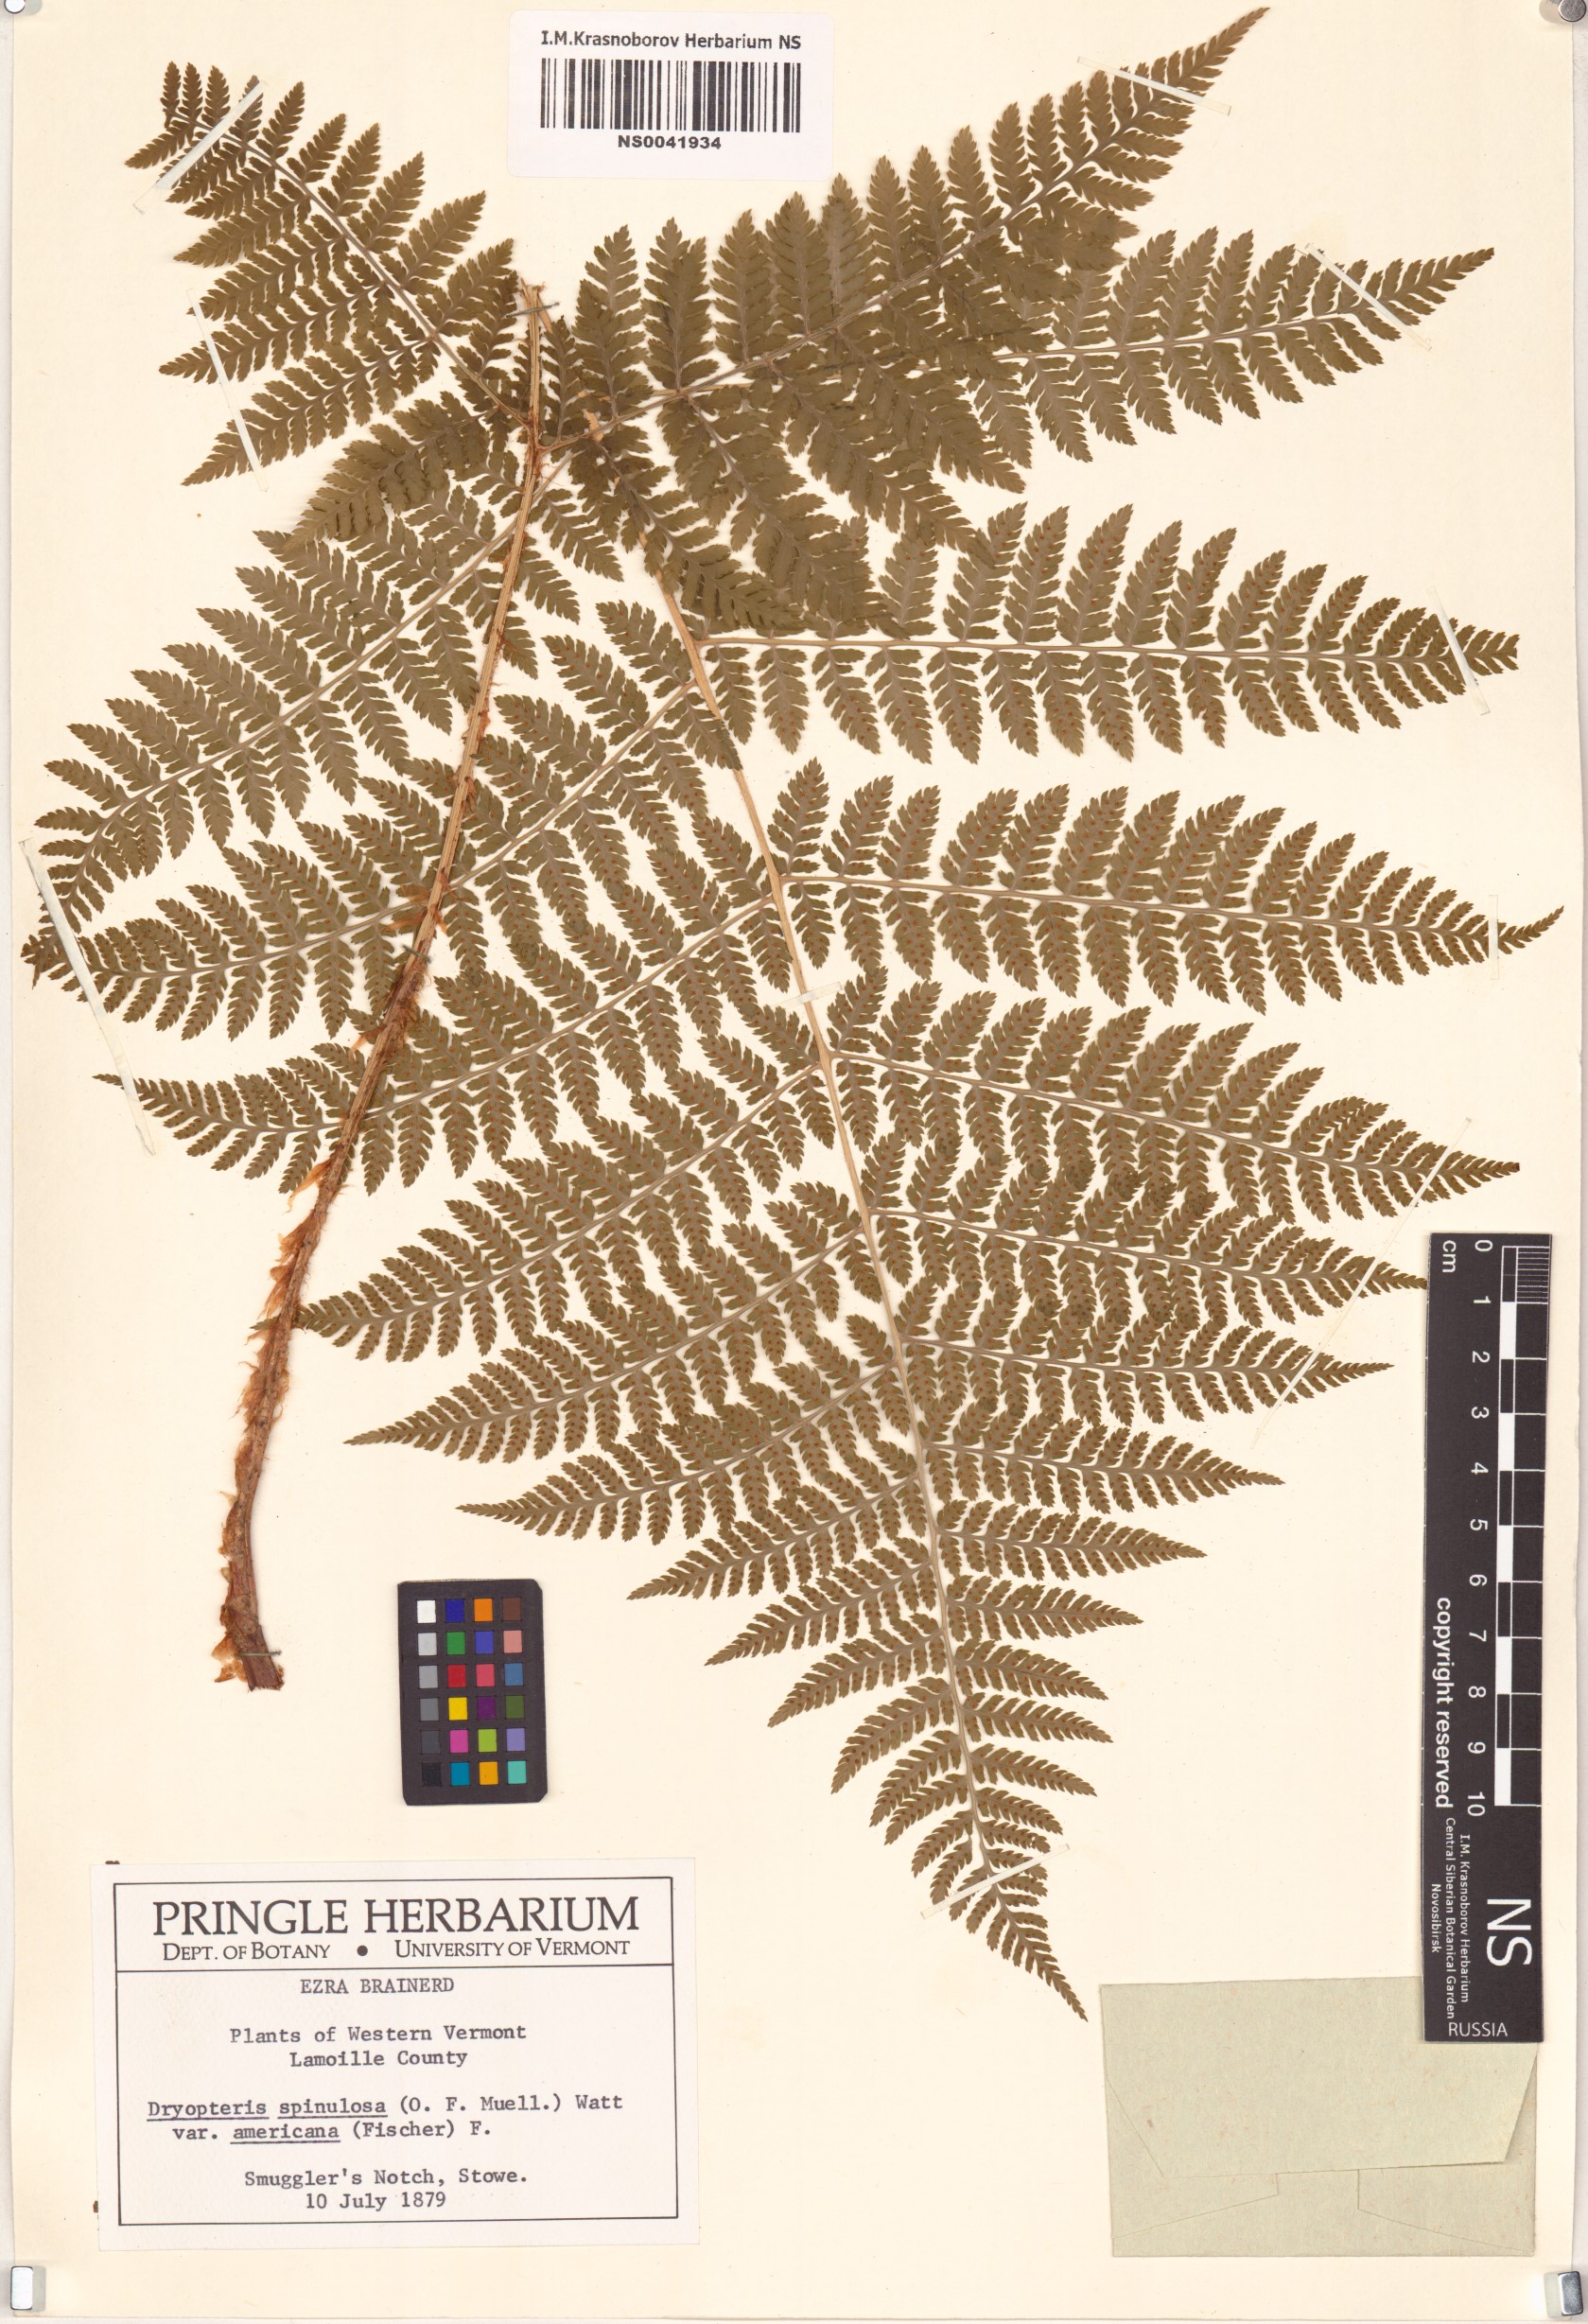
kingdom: Plantae
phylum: Tracheophyta
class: Polypodiopsida
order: Polypodiales
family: Dryopteridaceae
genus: Dryopteris
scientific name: Dryopteris campyloptera
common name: Mountain wood fern
